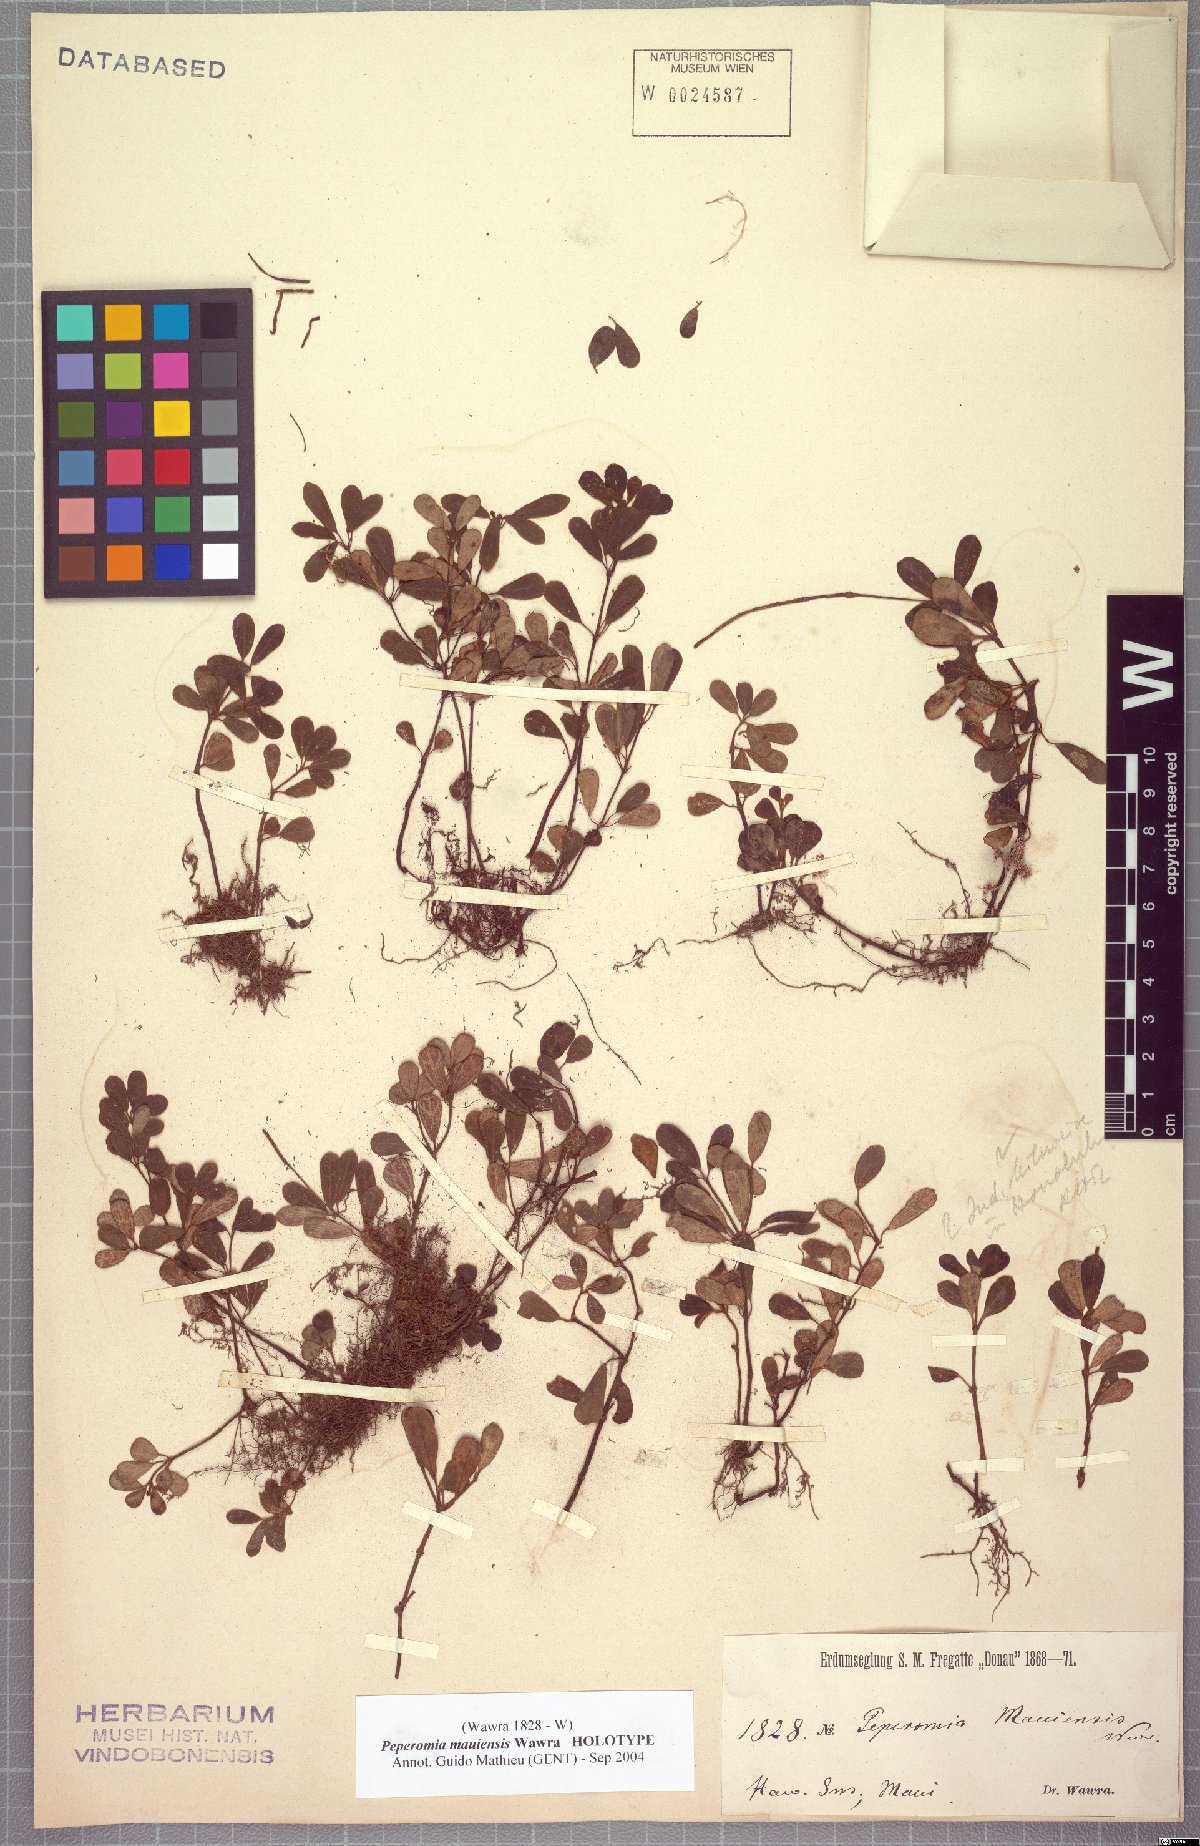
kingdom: Plantae
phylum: Tracheophyta
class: Magnoliopsida
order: Piperales
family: Piperaceae
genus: Peperomia
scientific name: Peperomia mauiensis
